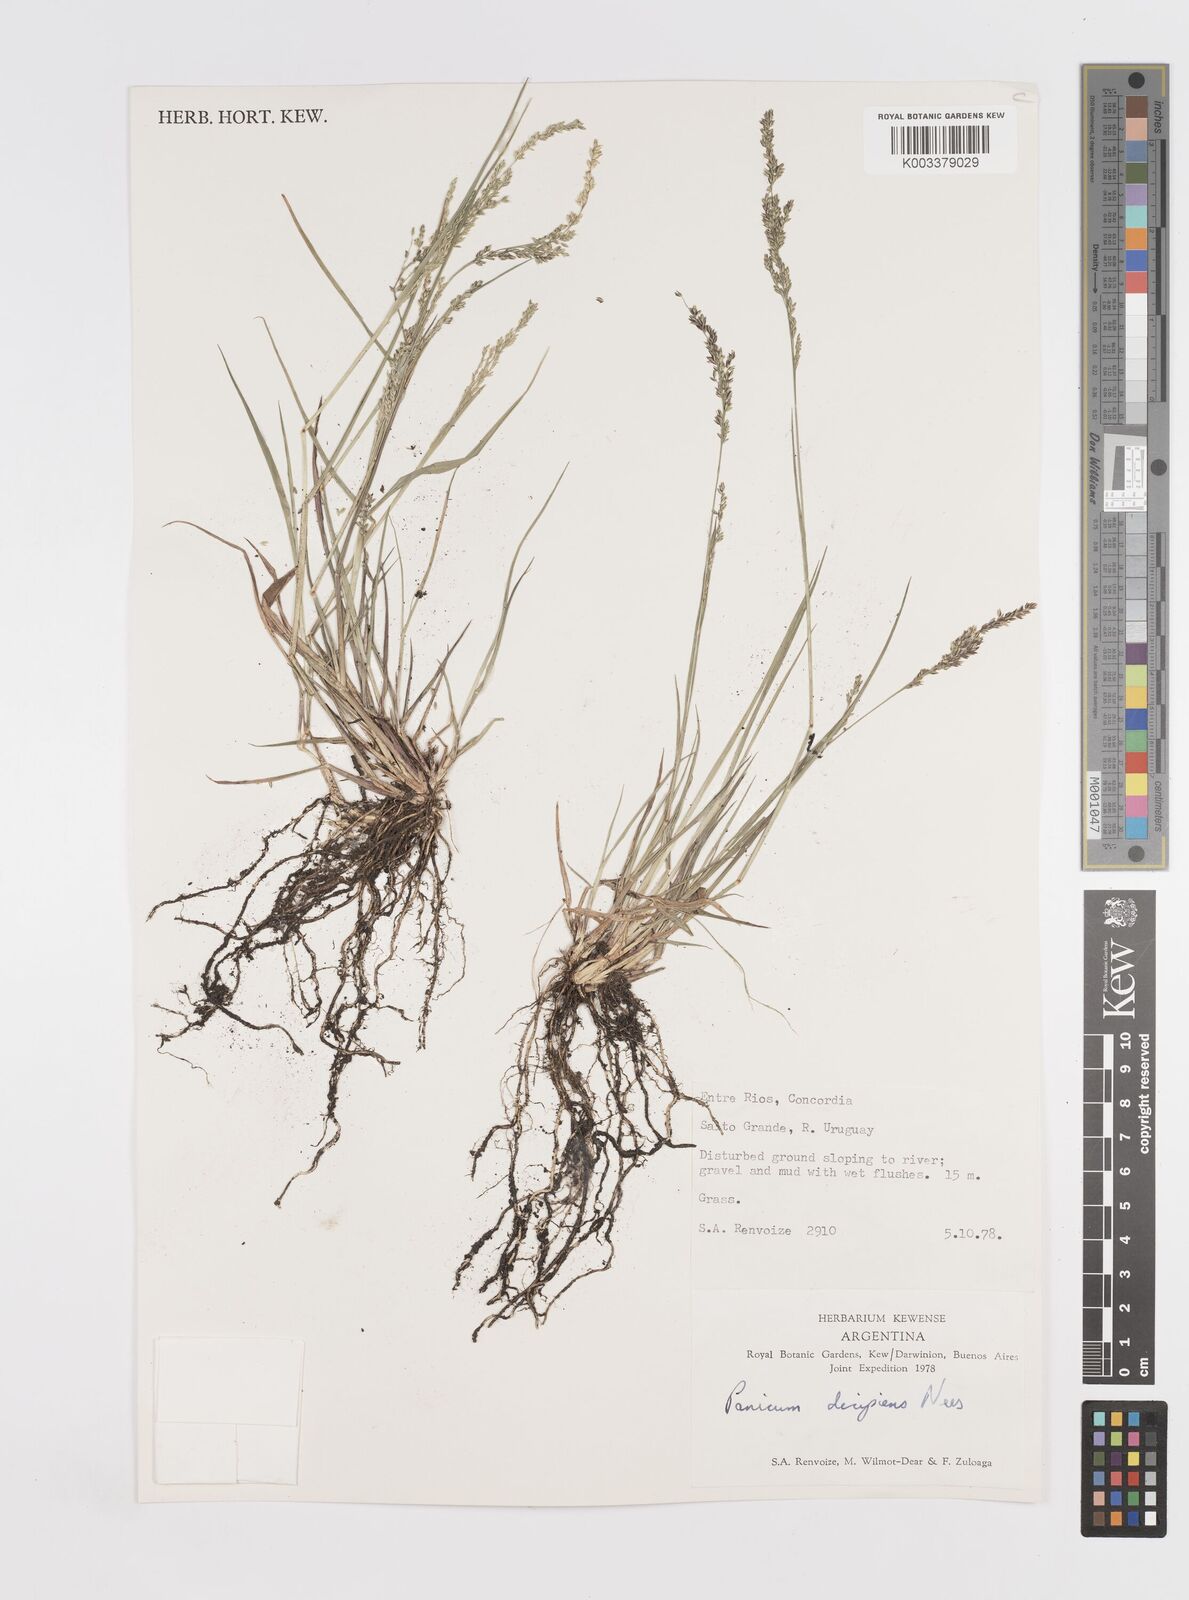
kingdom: Plantae
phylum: Tracheophyta
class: Liliopsida
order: Poales
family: Poaceae
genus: Steinchisma
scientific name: Steinchisma decipiens
